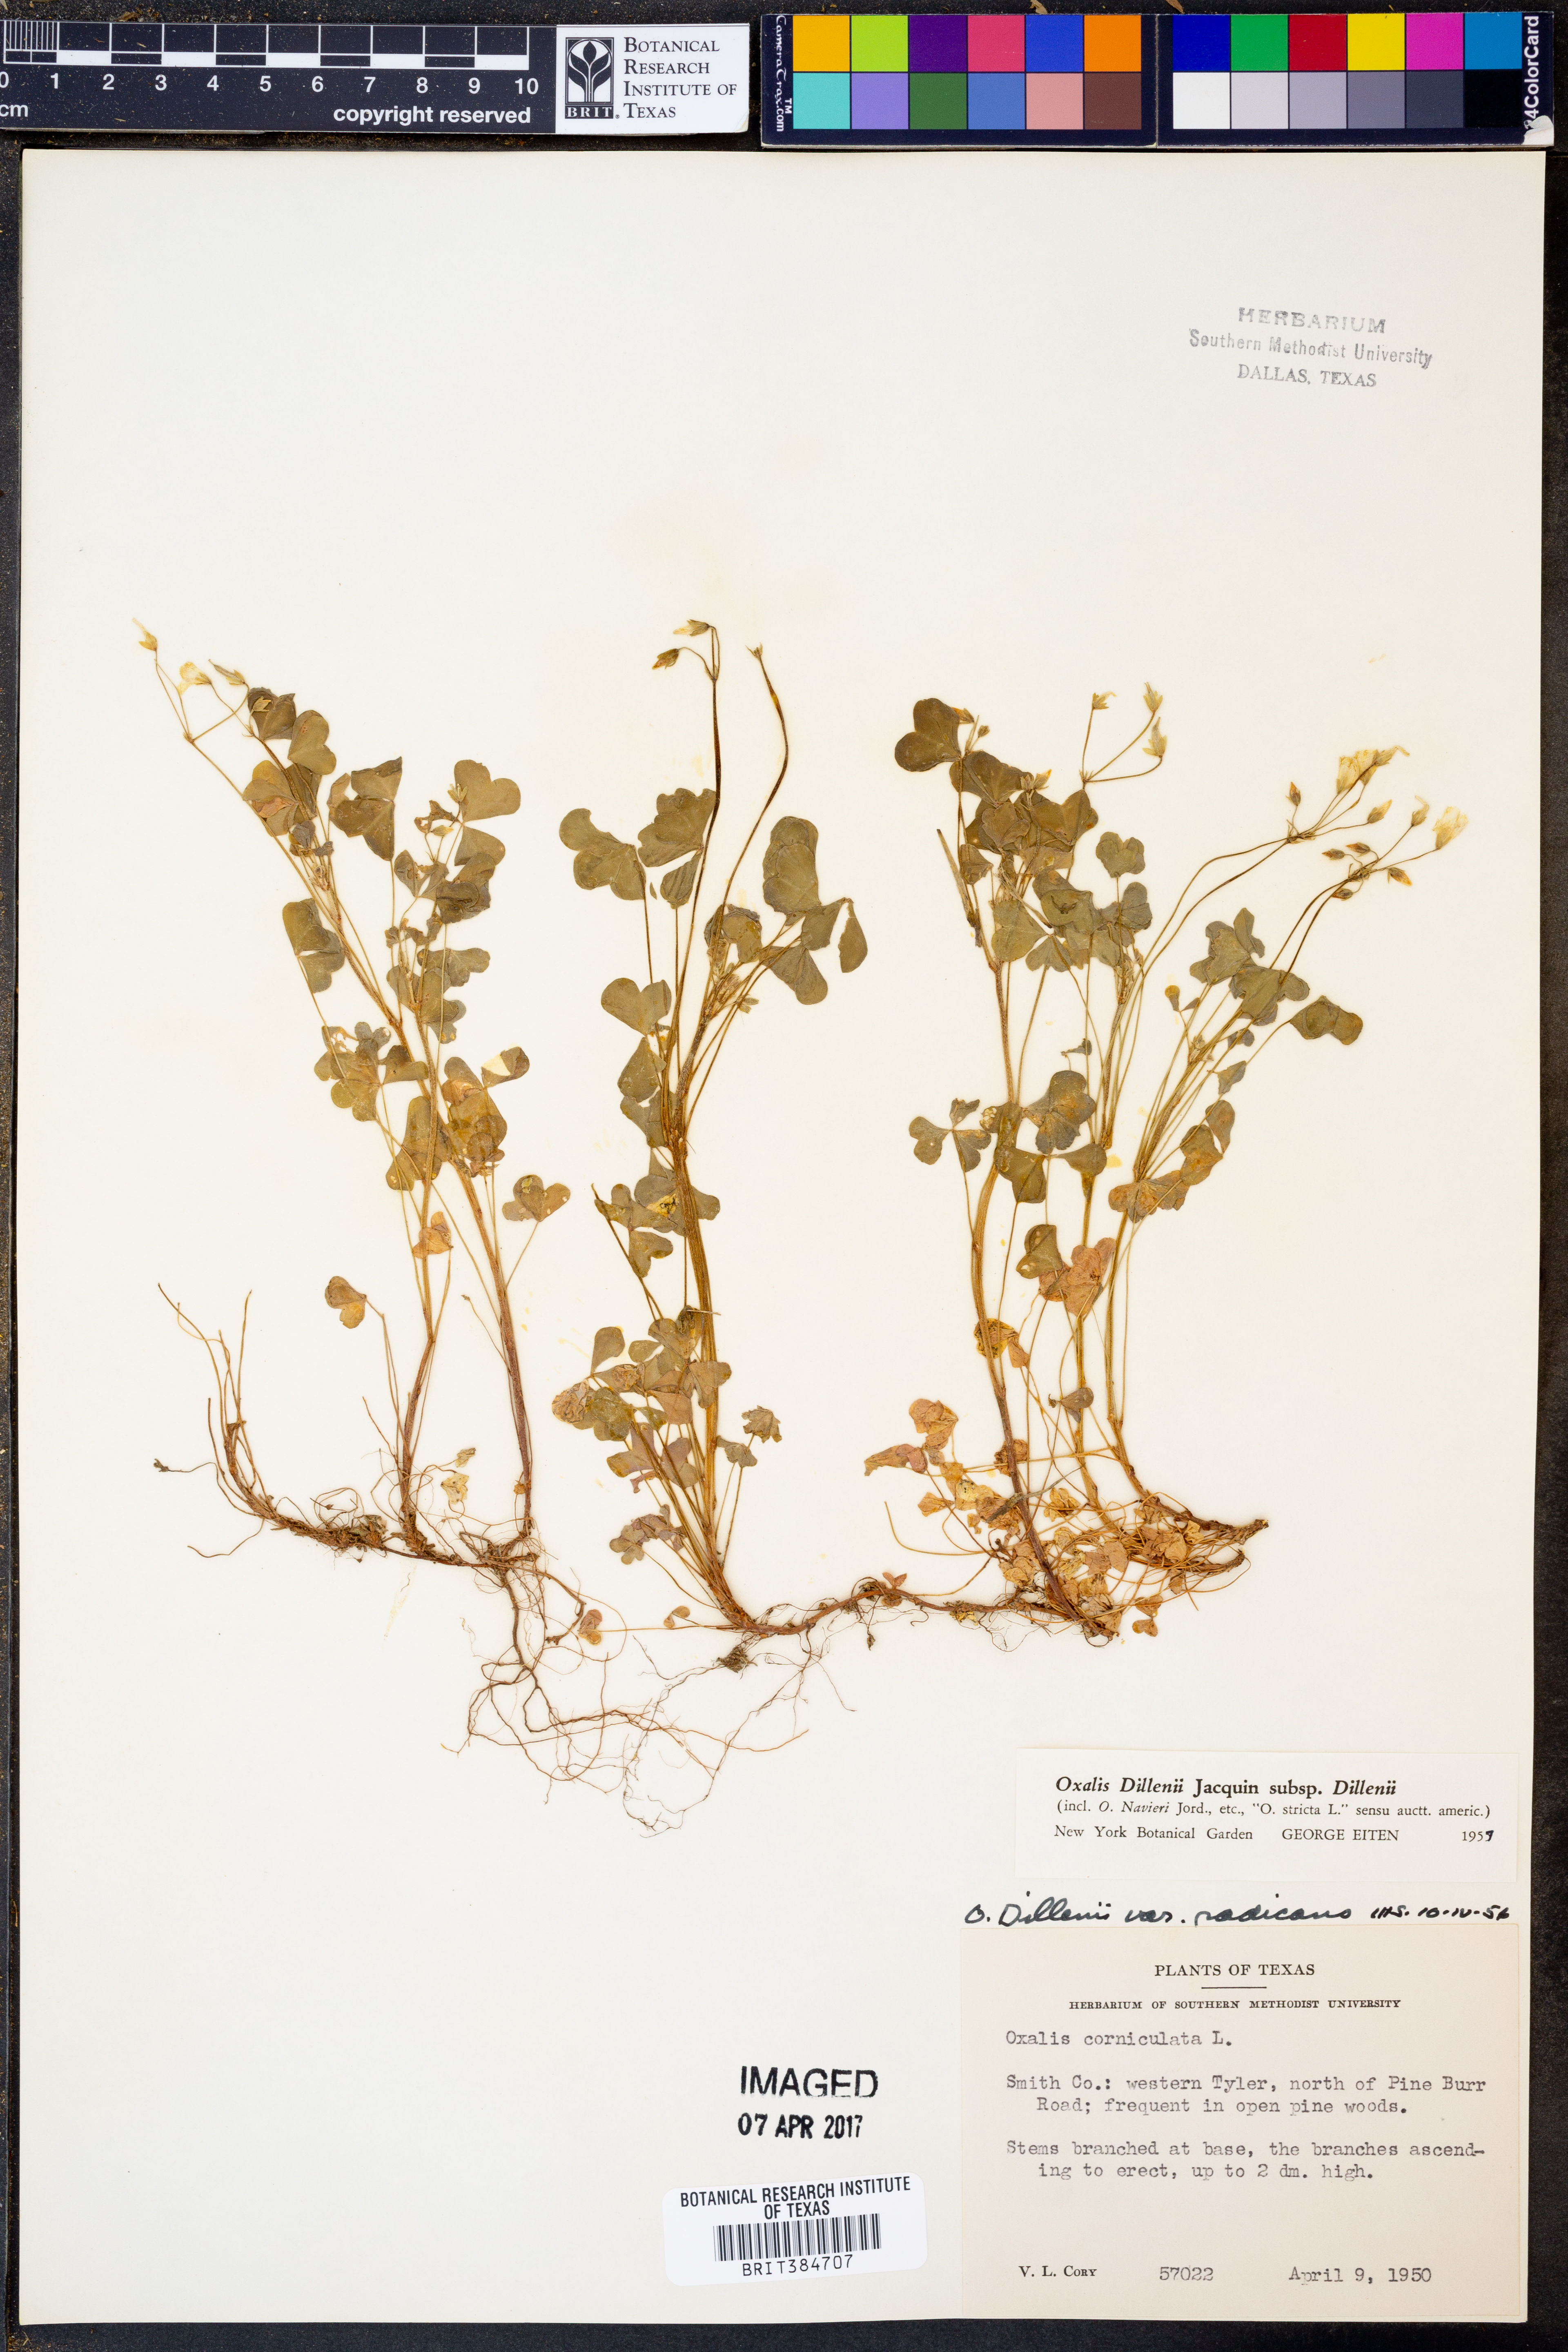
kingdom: Plantae
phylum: Tracheophyta
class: Magnoliopsida
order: Oxalidales
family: Oxalidaceae
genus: Oxalis
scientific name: Oxalis dillenii
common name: Sussex yellow-sorrel
